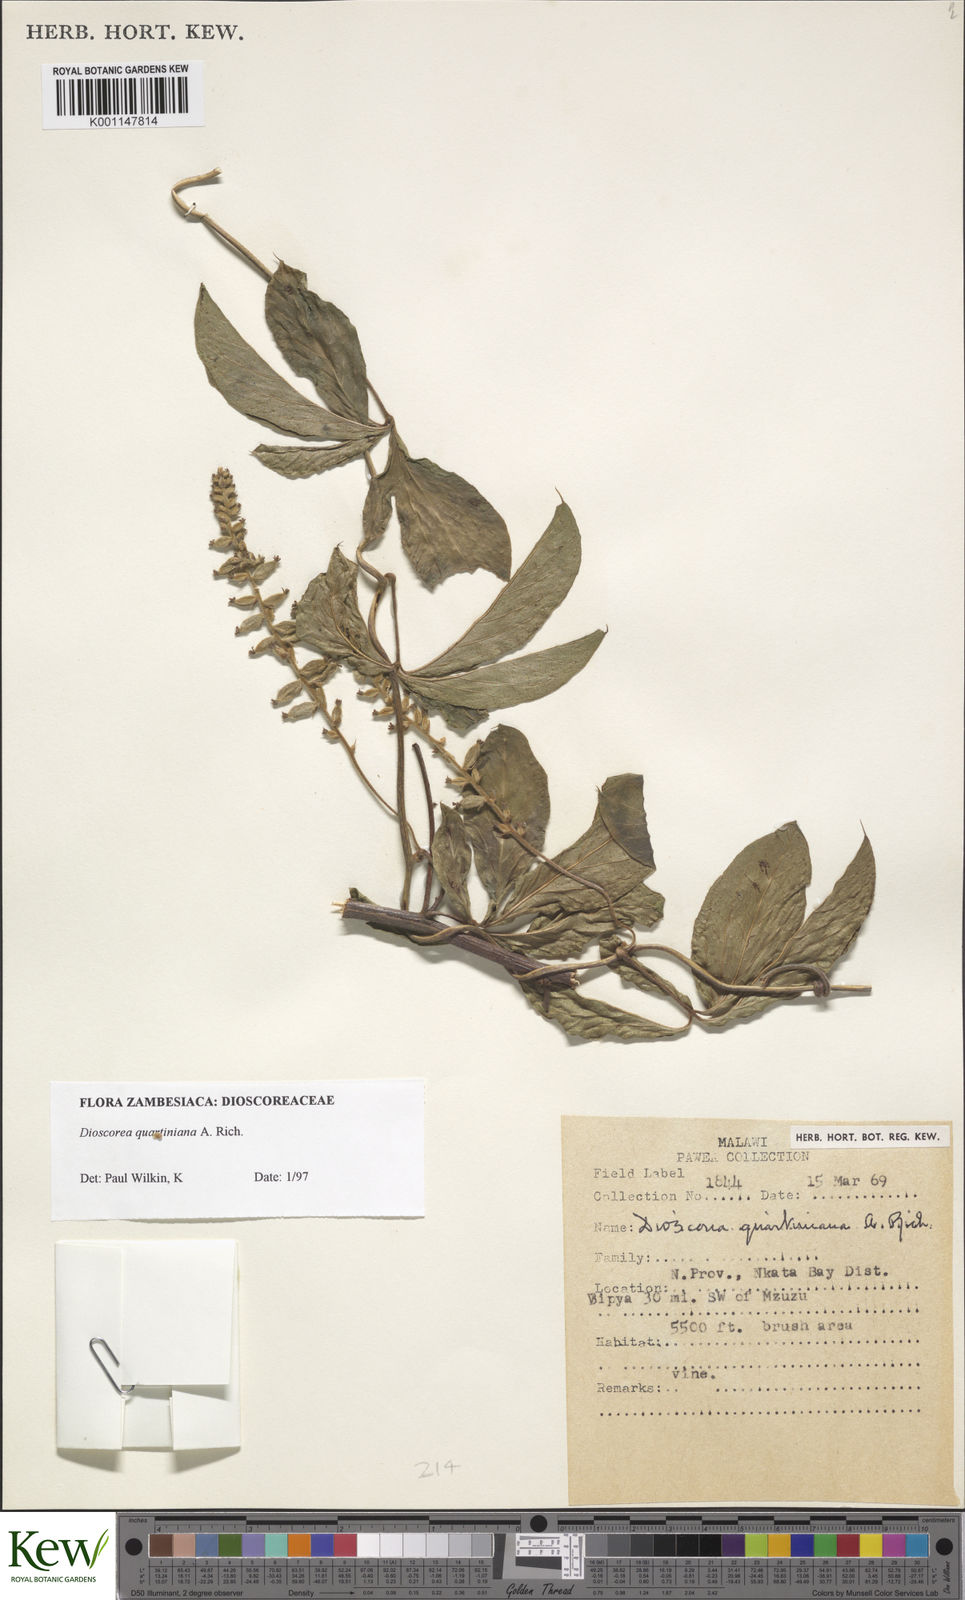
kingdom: Plantae
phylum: Tracheophyta
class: Liliopsida
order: Dioscoreales
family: Dioscoreaceae
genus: Dioscorea
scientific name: Dioscorea quartiniana
